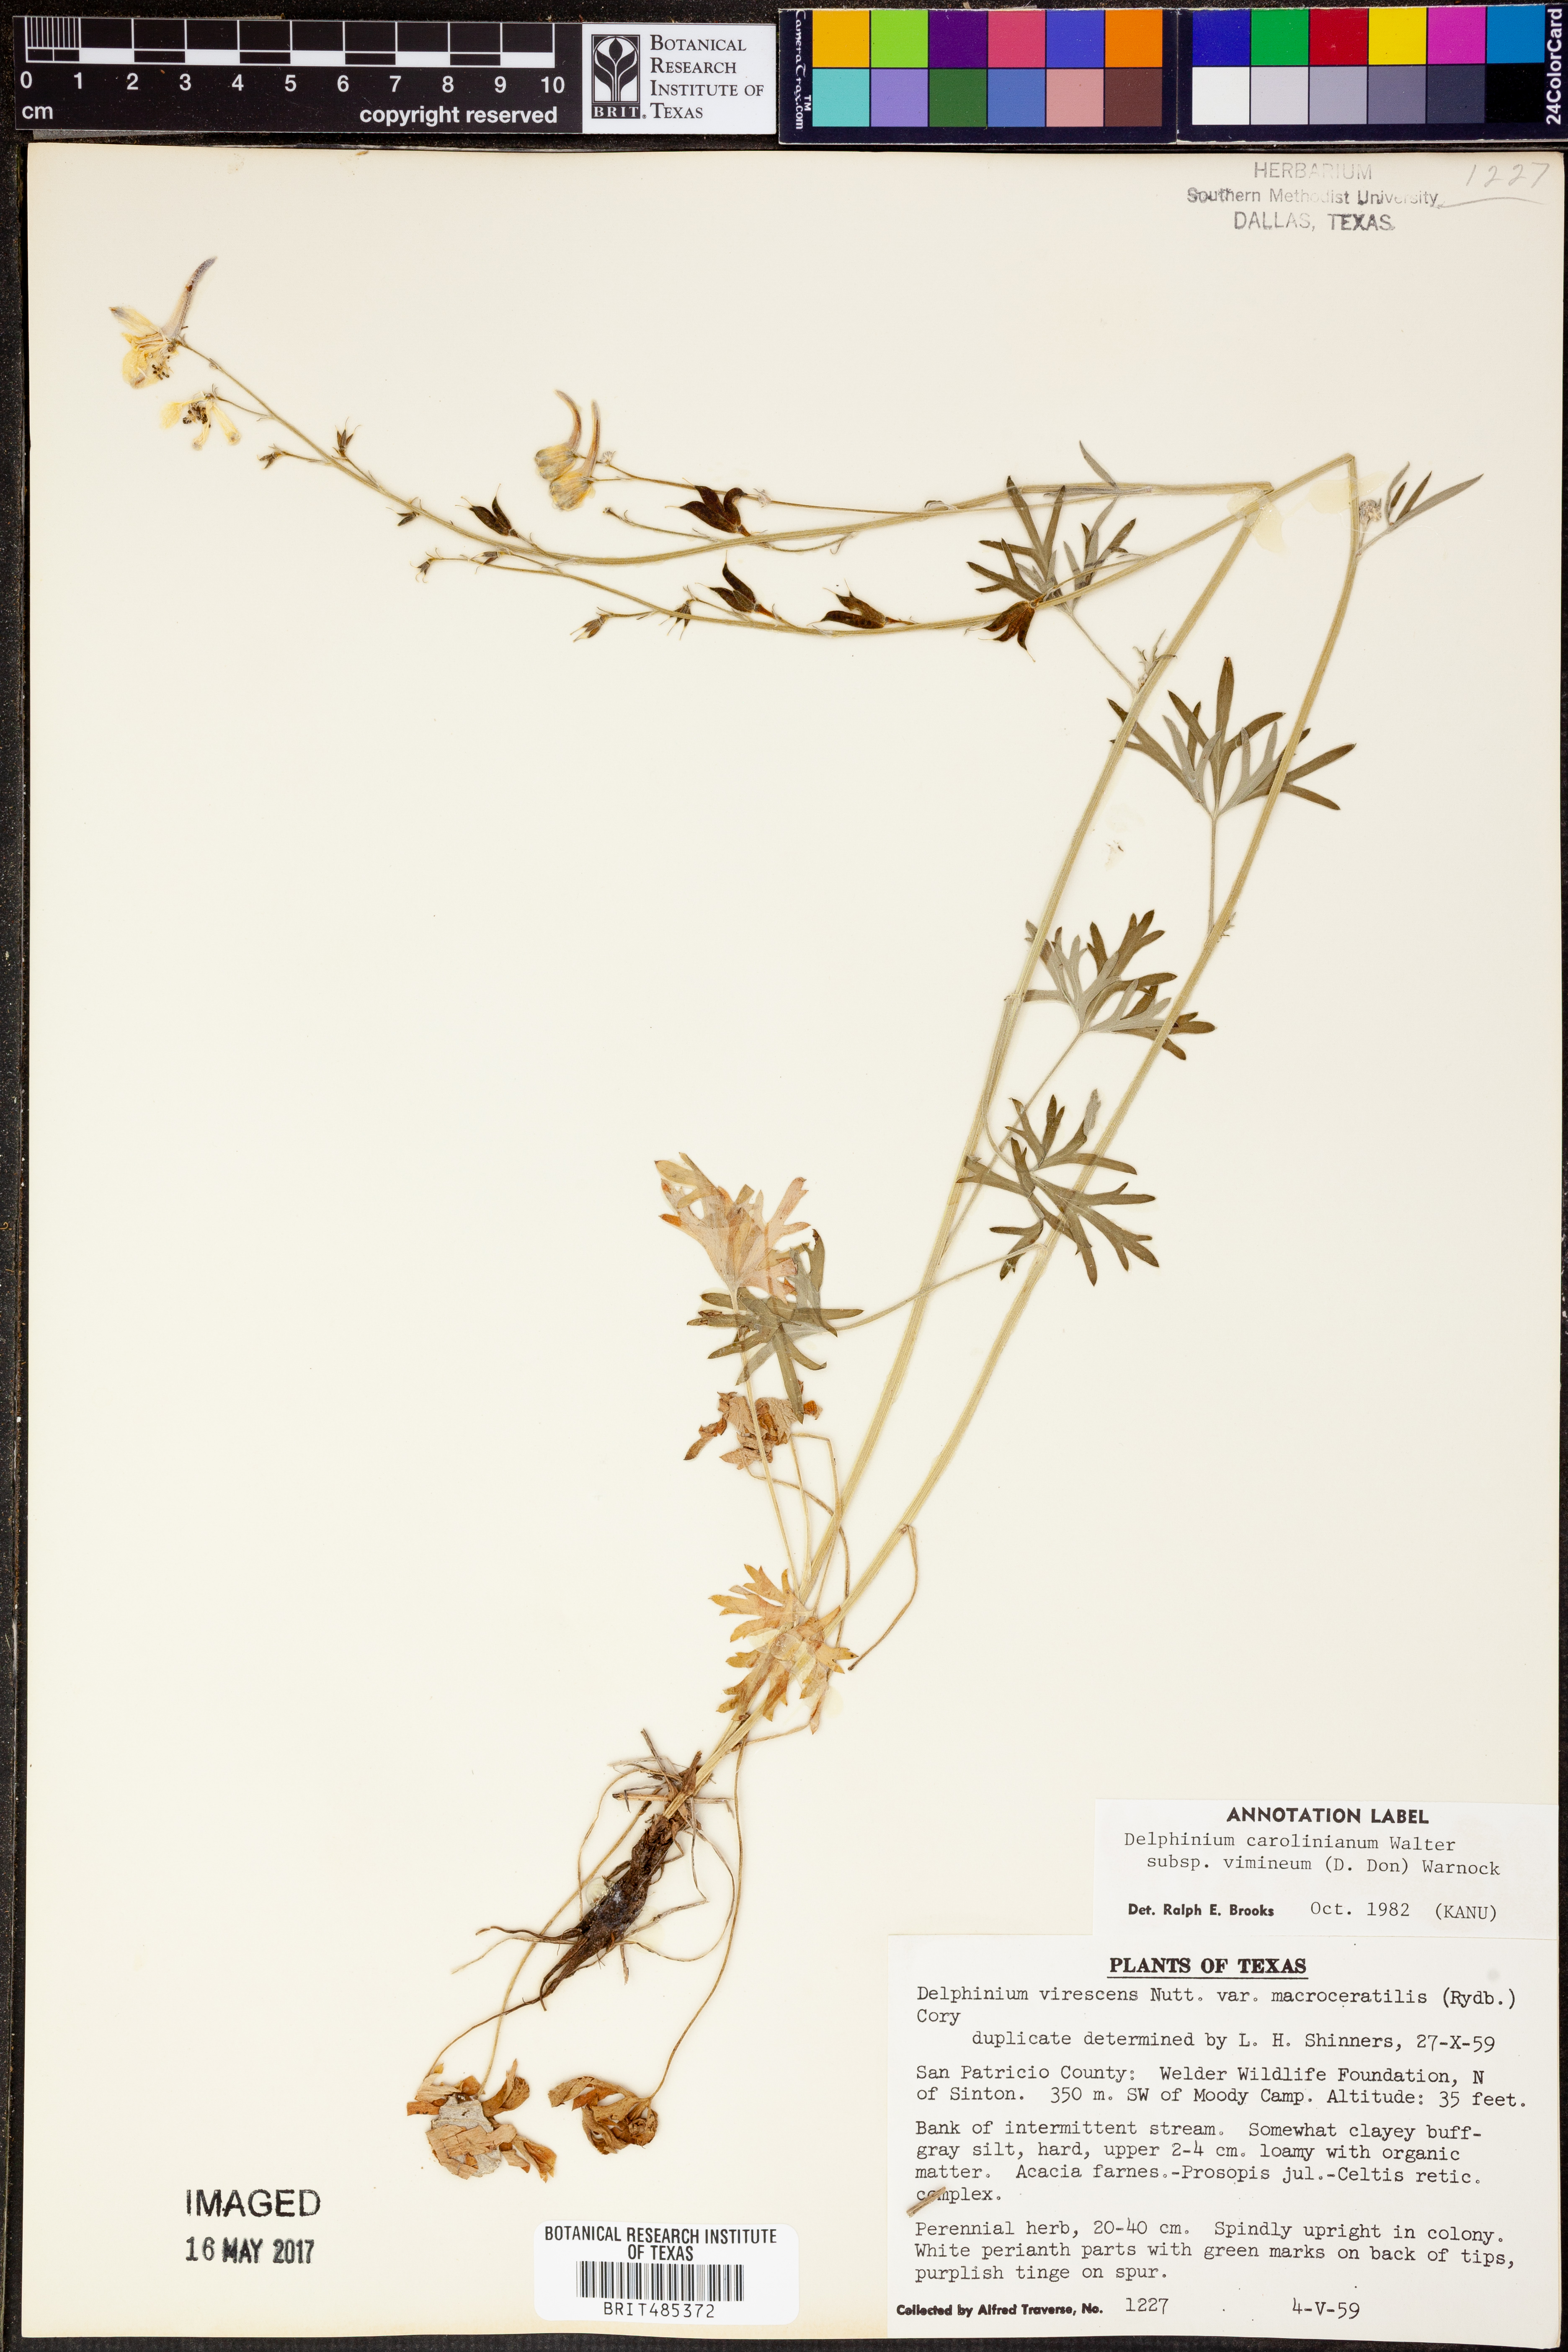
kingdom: Plantae
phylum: Tracheophyta
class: Magnoliopsida
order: Ranunculales
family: Ranunculaceae
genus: Delphinium
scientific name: Delphinium carolinianum
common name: Carolina larkspur
